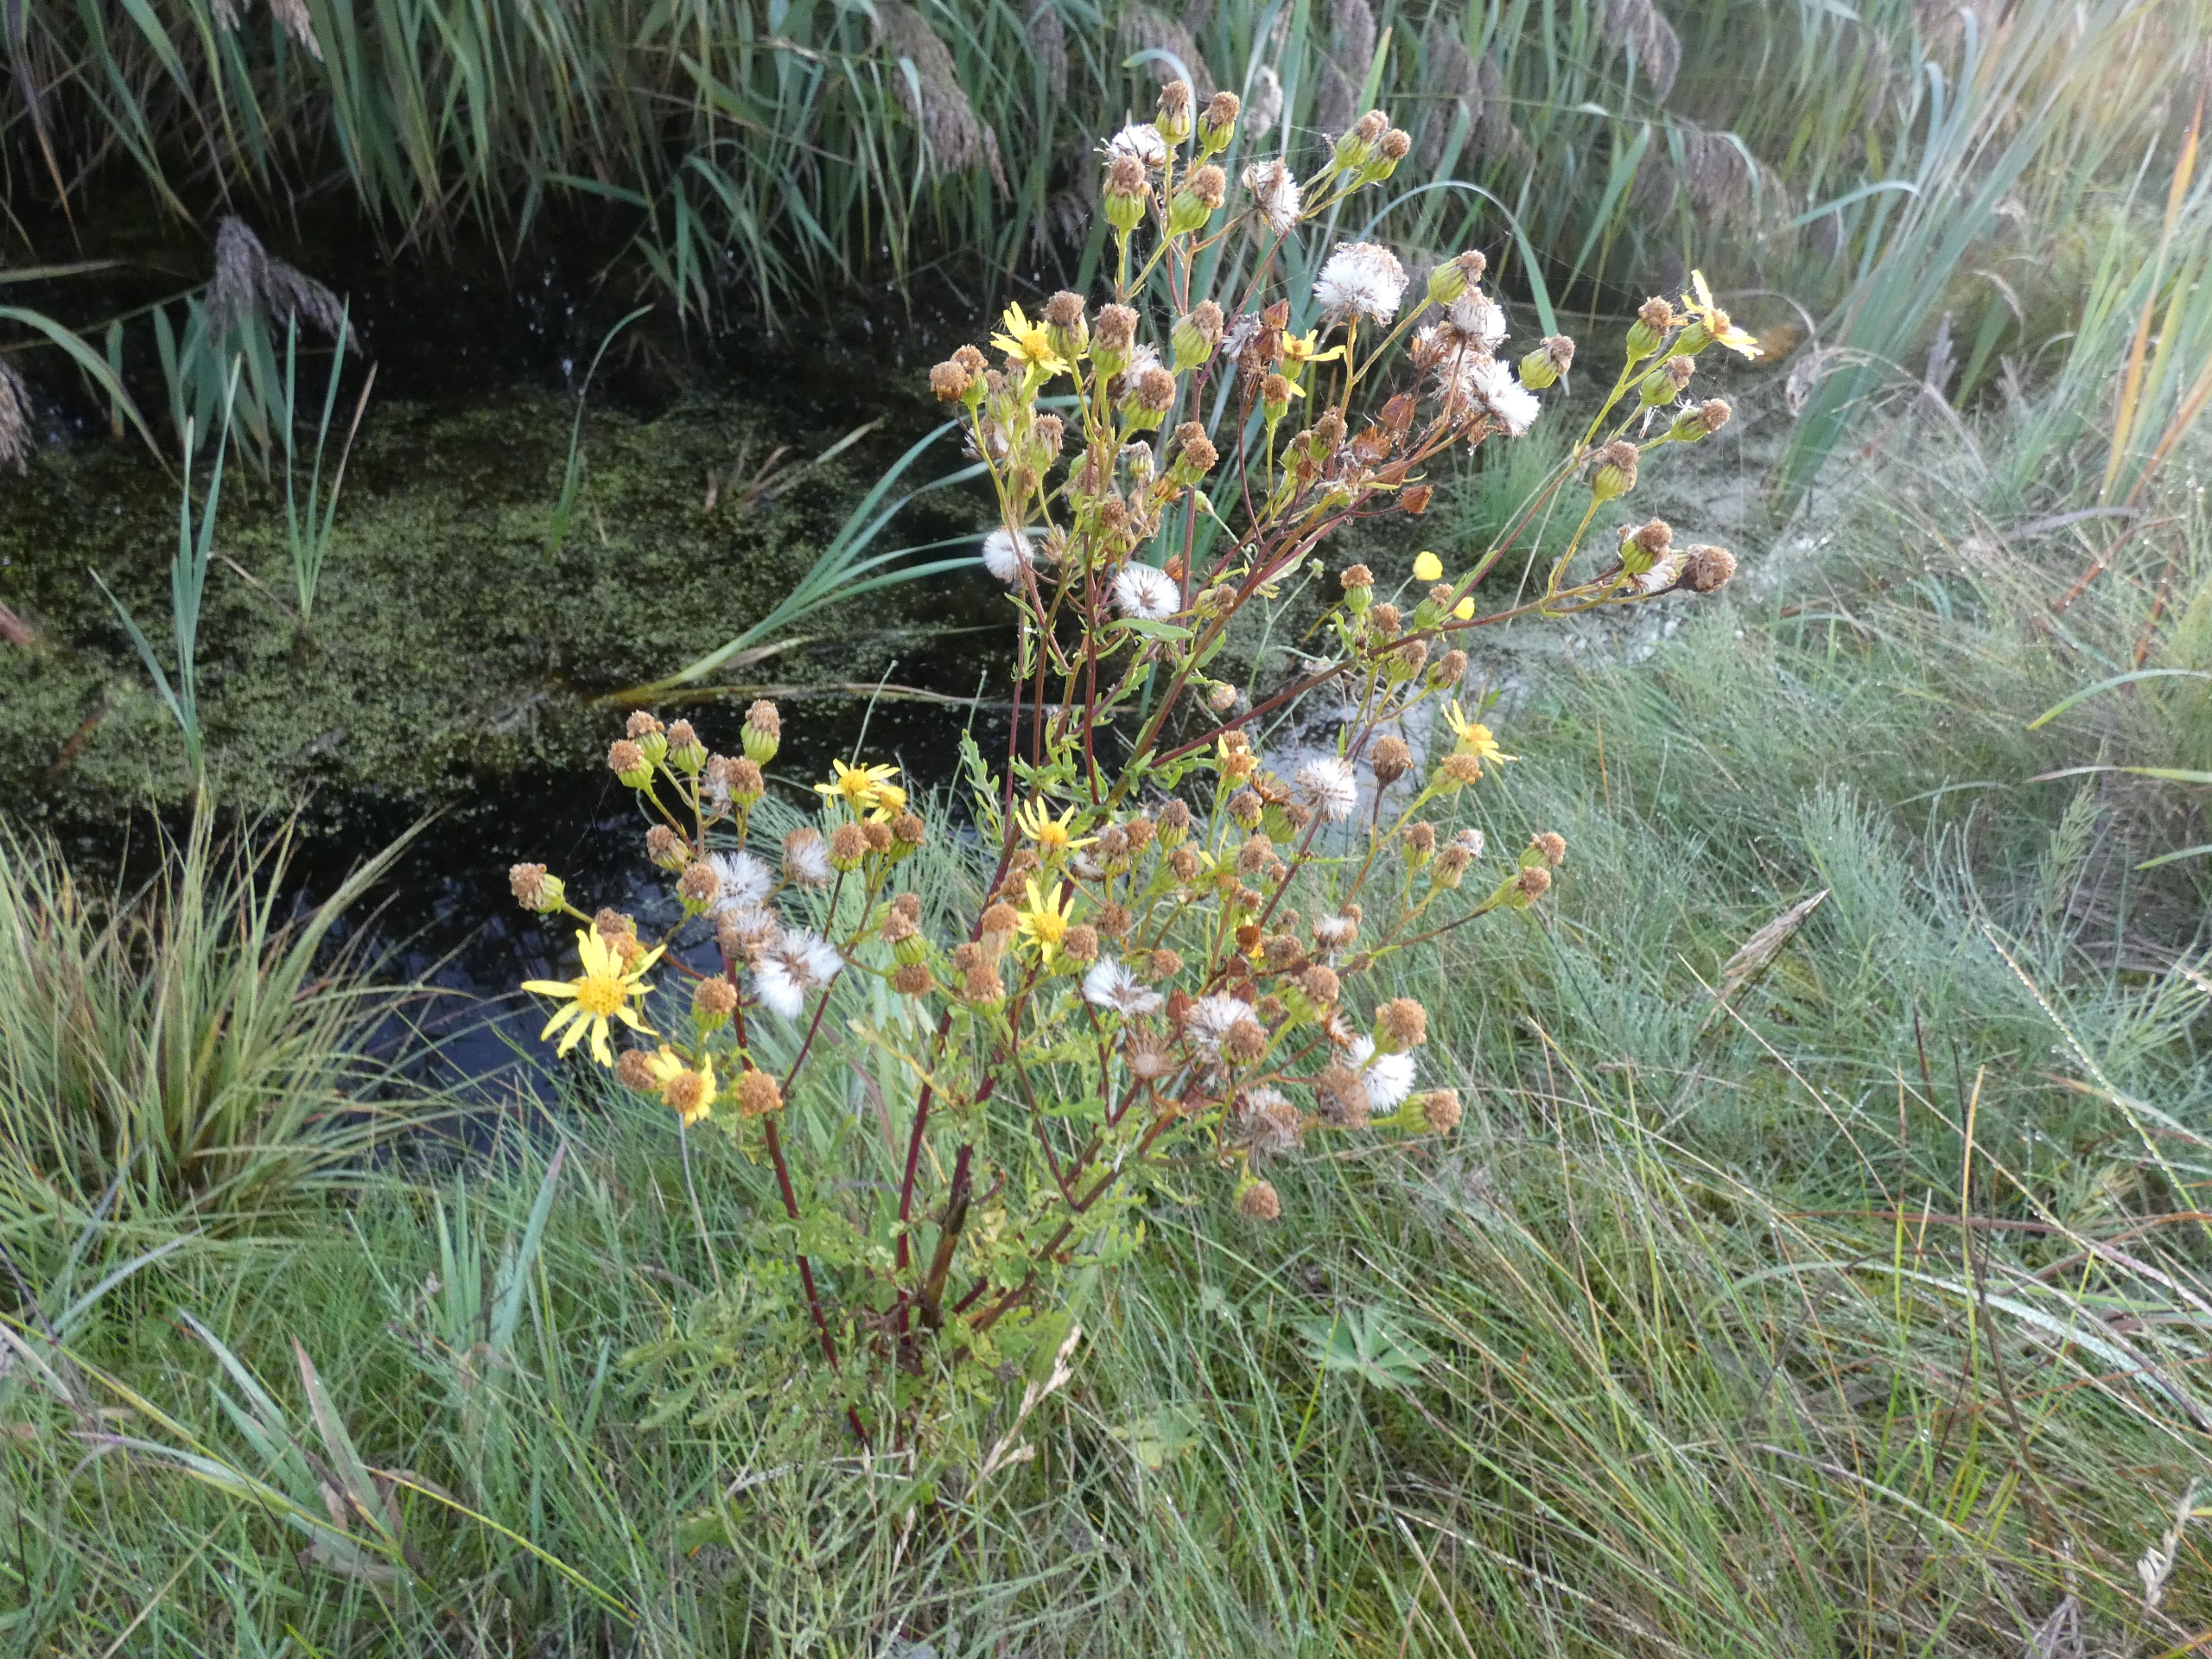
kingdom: Plantae
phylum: Tracheophyta
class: Magnoliopsida
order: Asterales
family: Asteraceae
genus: Jacobaea
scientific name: Jacobaea vulgaris
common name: Eng-brandbæger
